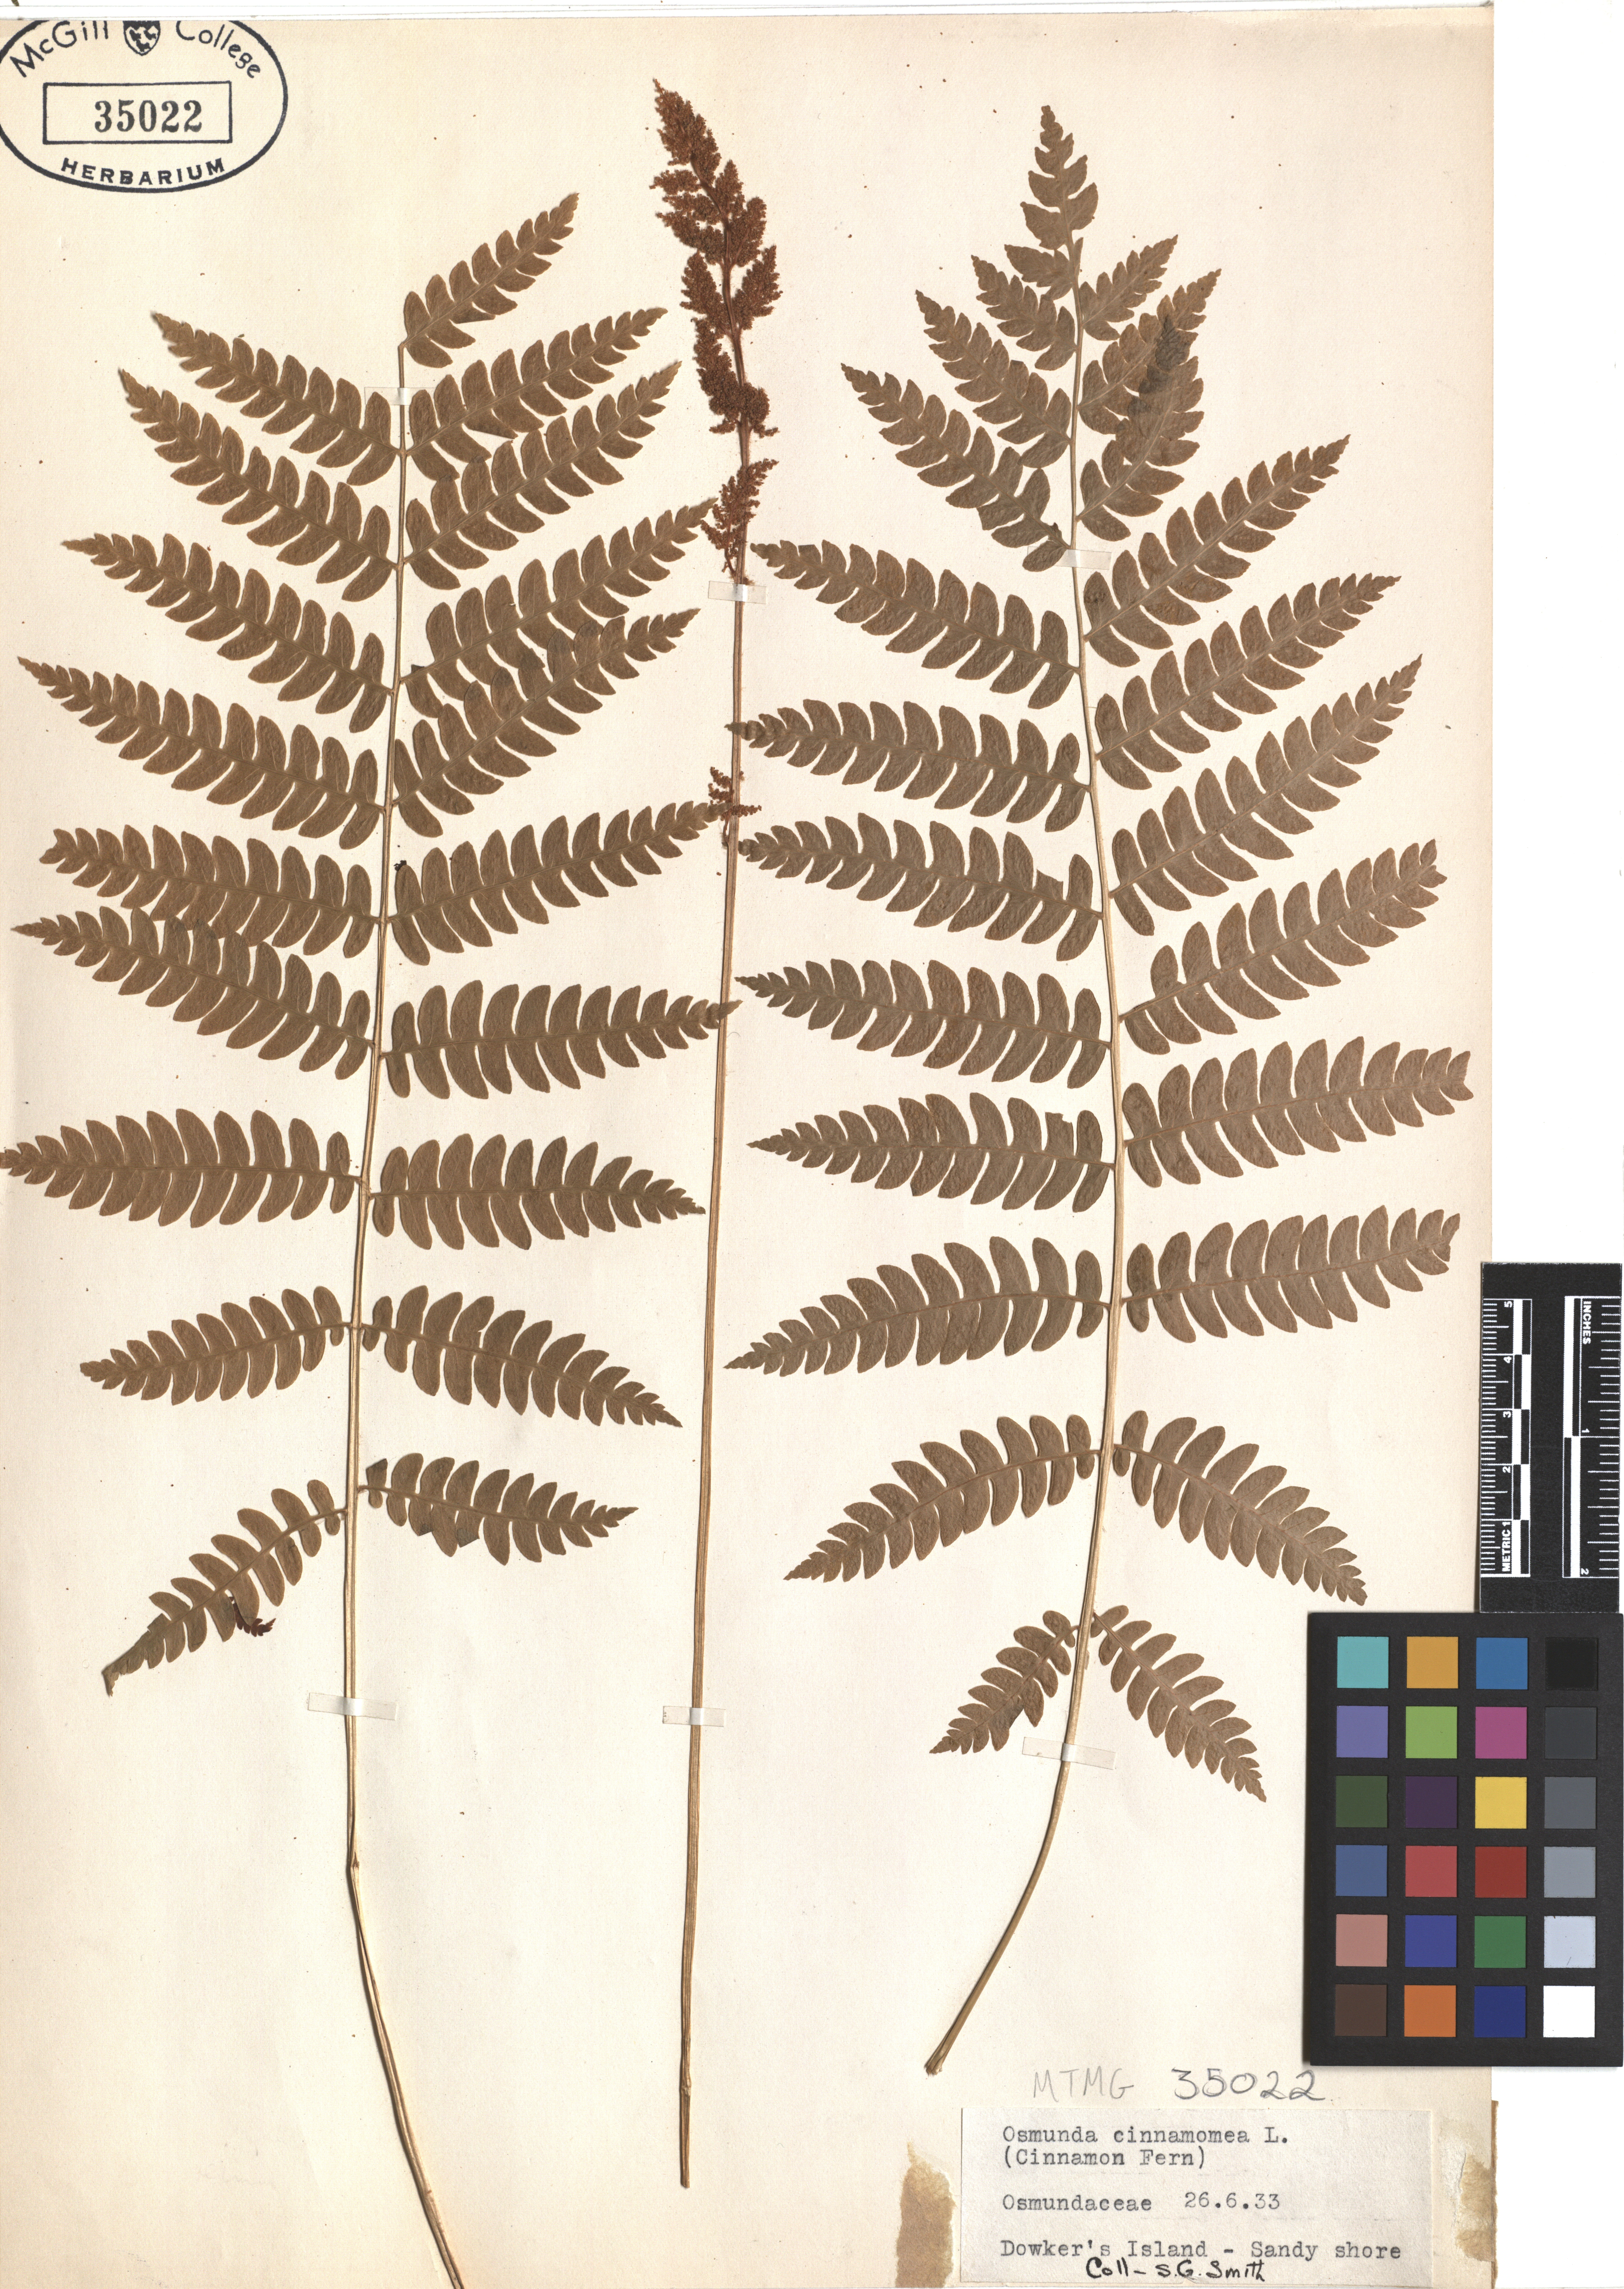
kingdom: Plantae
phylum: Tracheophyta
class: Polypodiopsida
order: Osmundales
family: Osmundaceae
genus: Osmundastrum
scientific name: Osmundastrum cinnamomeum
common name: Cinnamon fern
